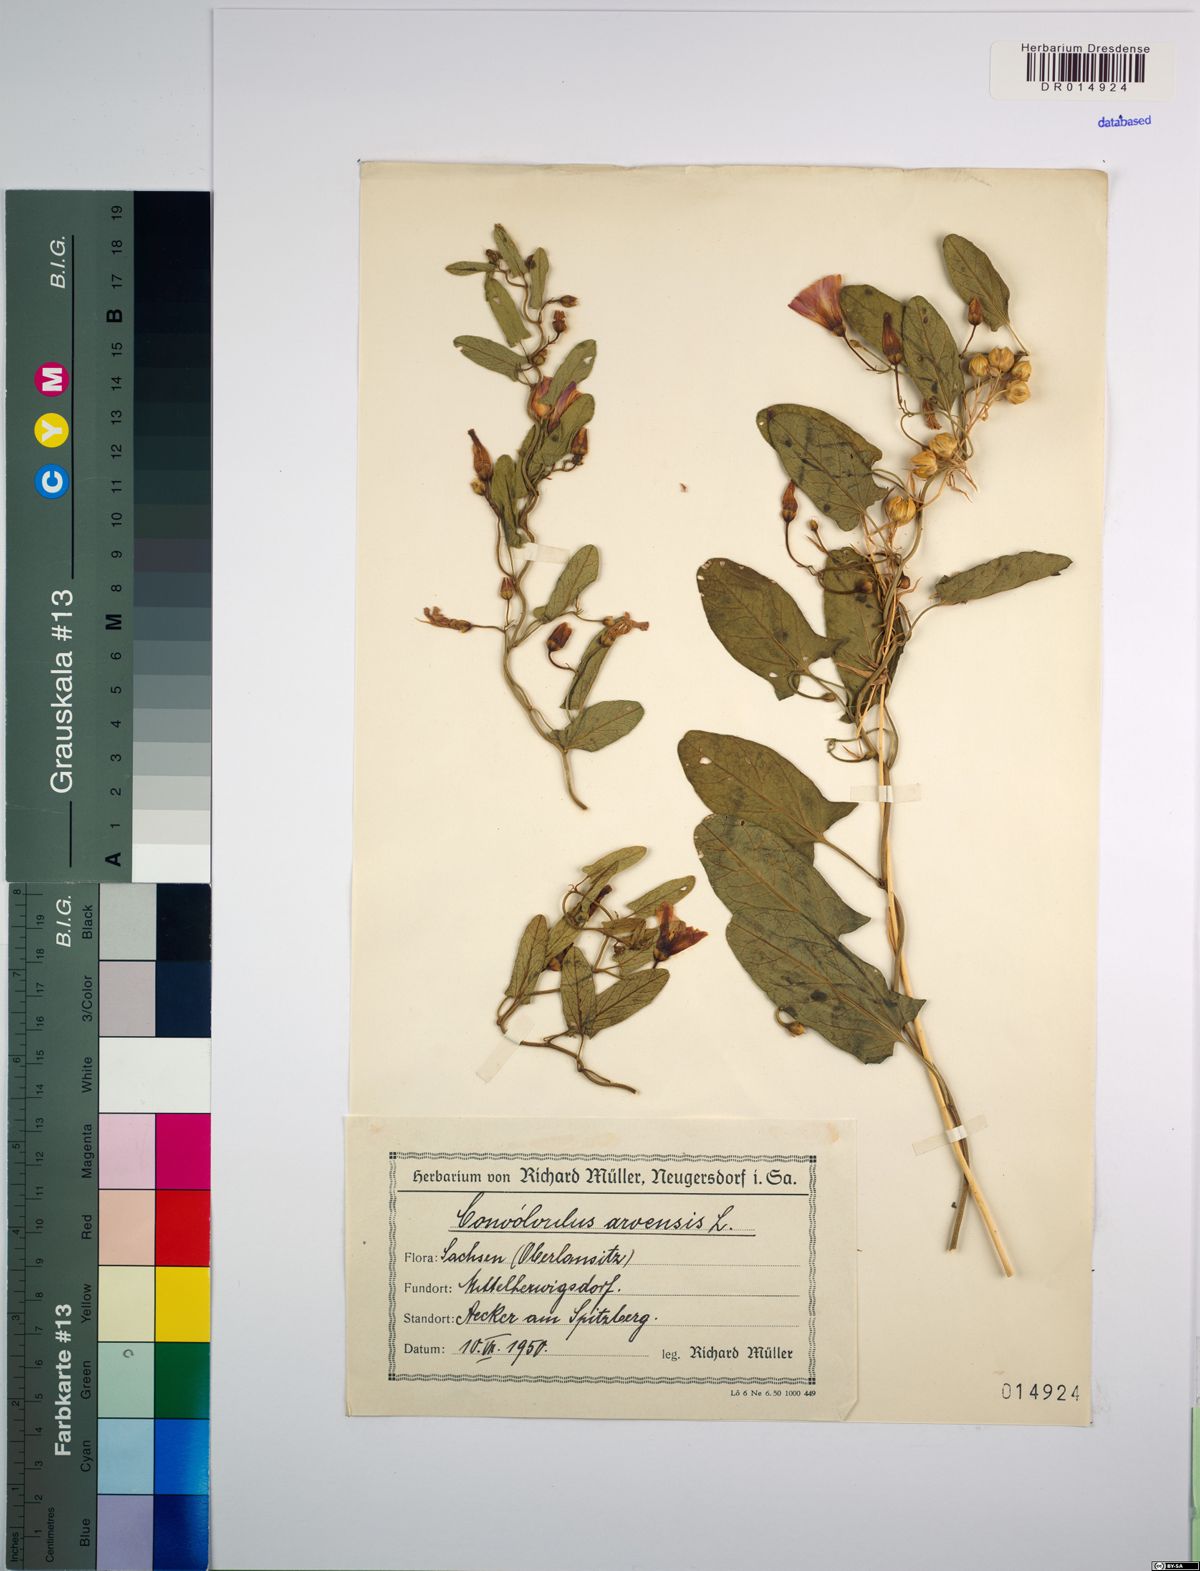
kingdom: Plantae
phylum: Tracheophyta
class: Magnoliopsida
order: Solanales
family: Convolvulaceae
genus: Convolvulus
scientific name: Convolvulus arvensis
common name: Field bindweed
